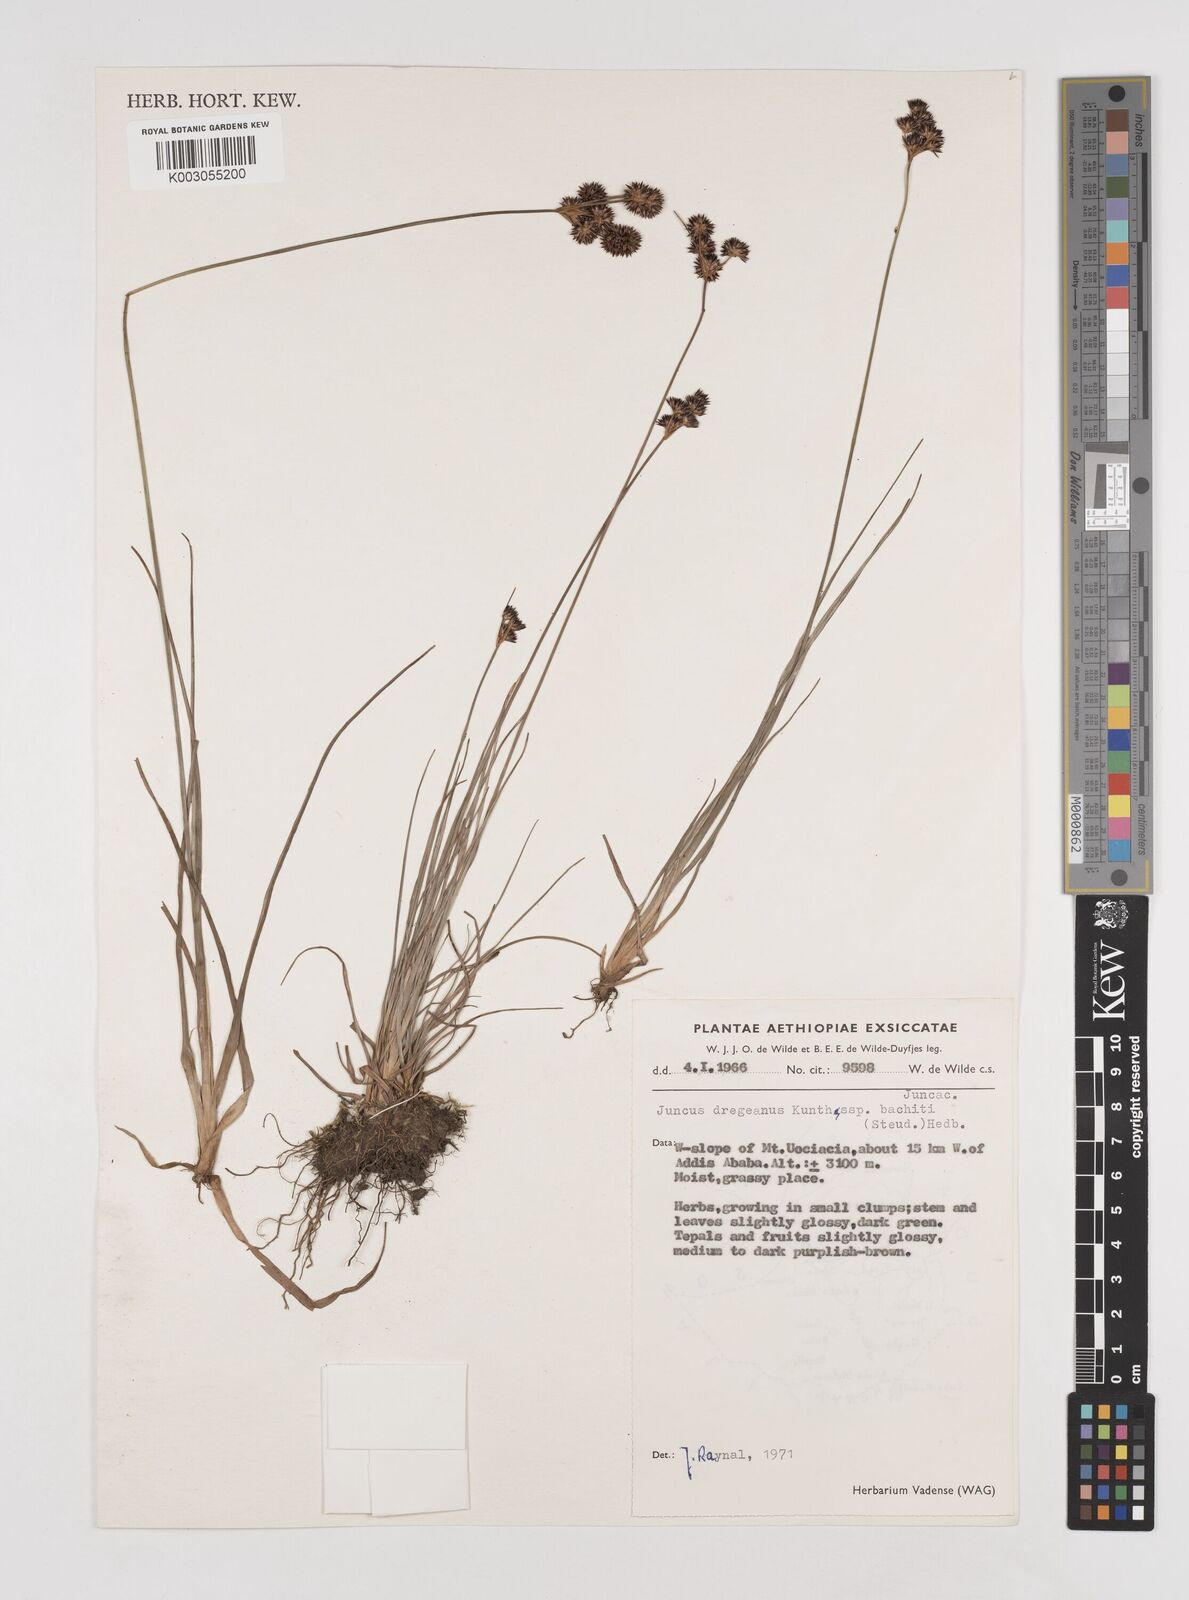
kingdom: Plantae
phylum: Tracheophyta
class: Liliopsida
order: Poales
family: Juncaceae
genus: Juncus
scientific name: Juncus dregeanus
